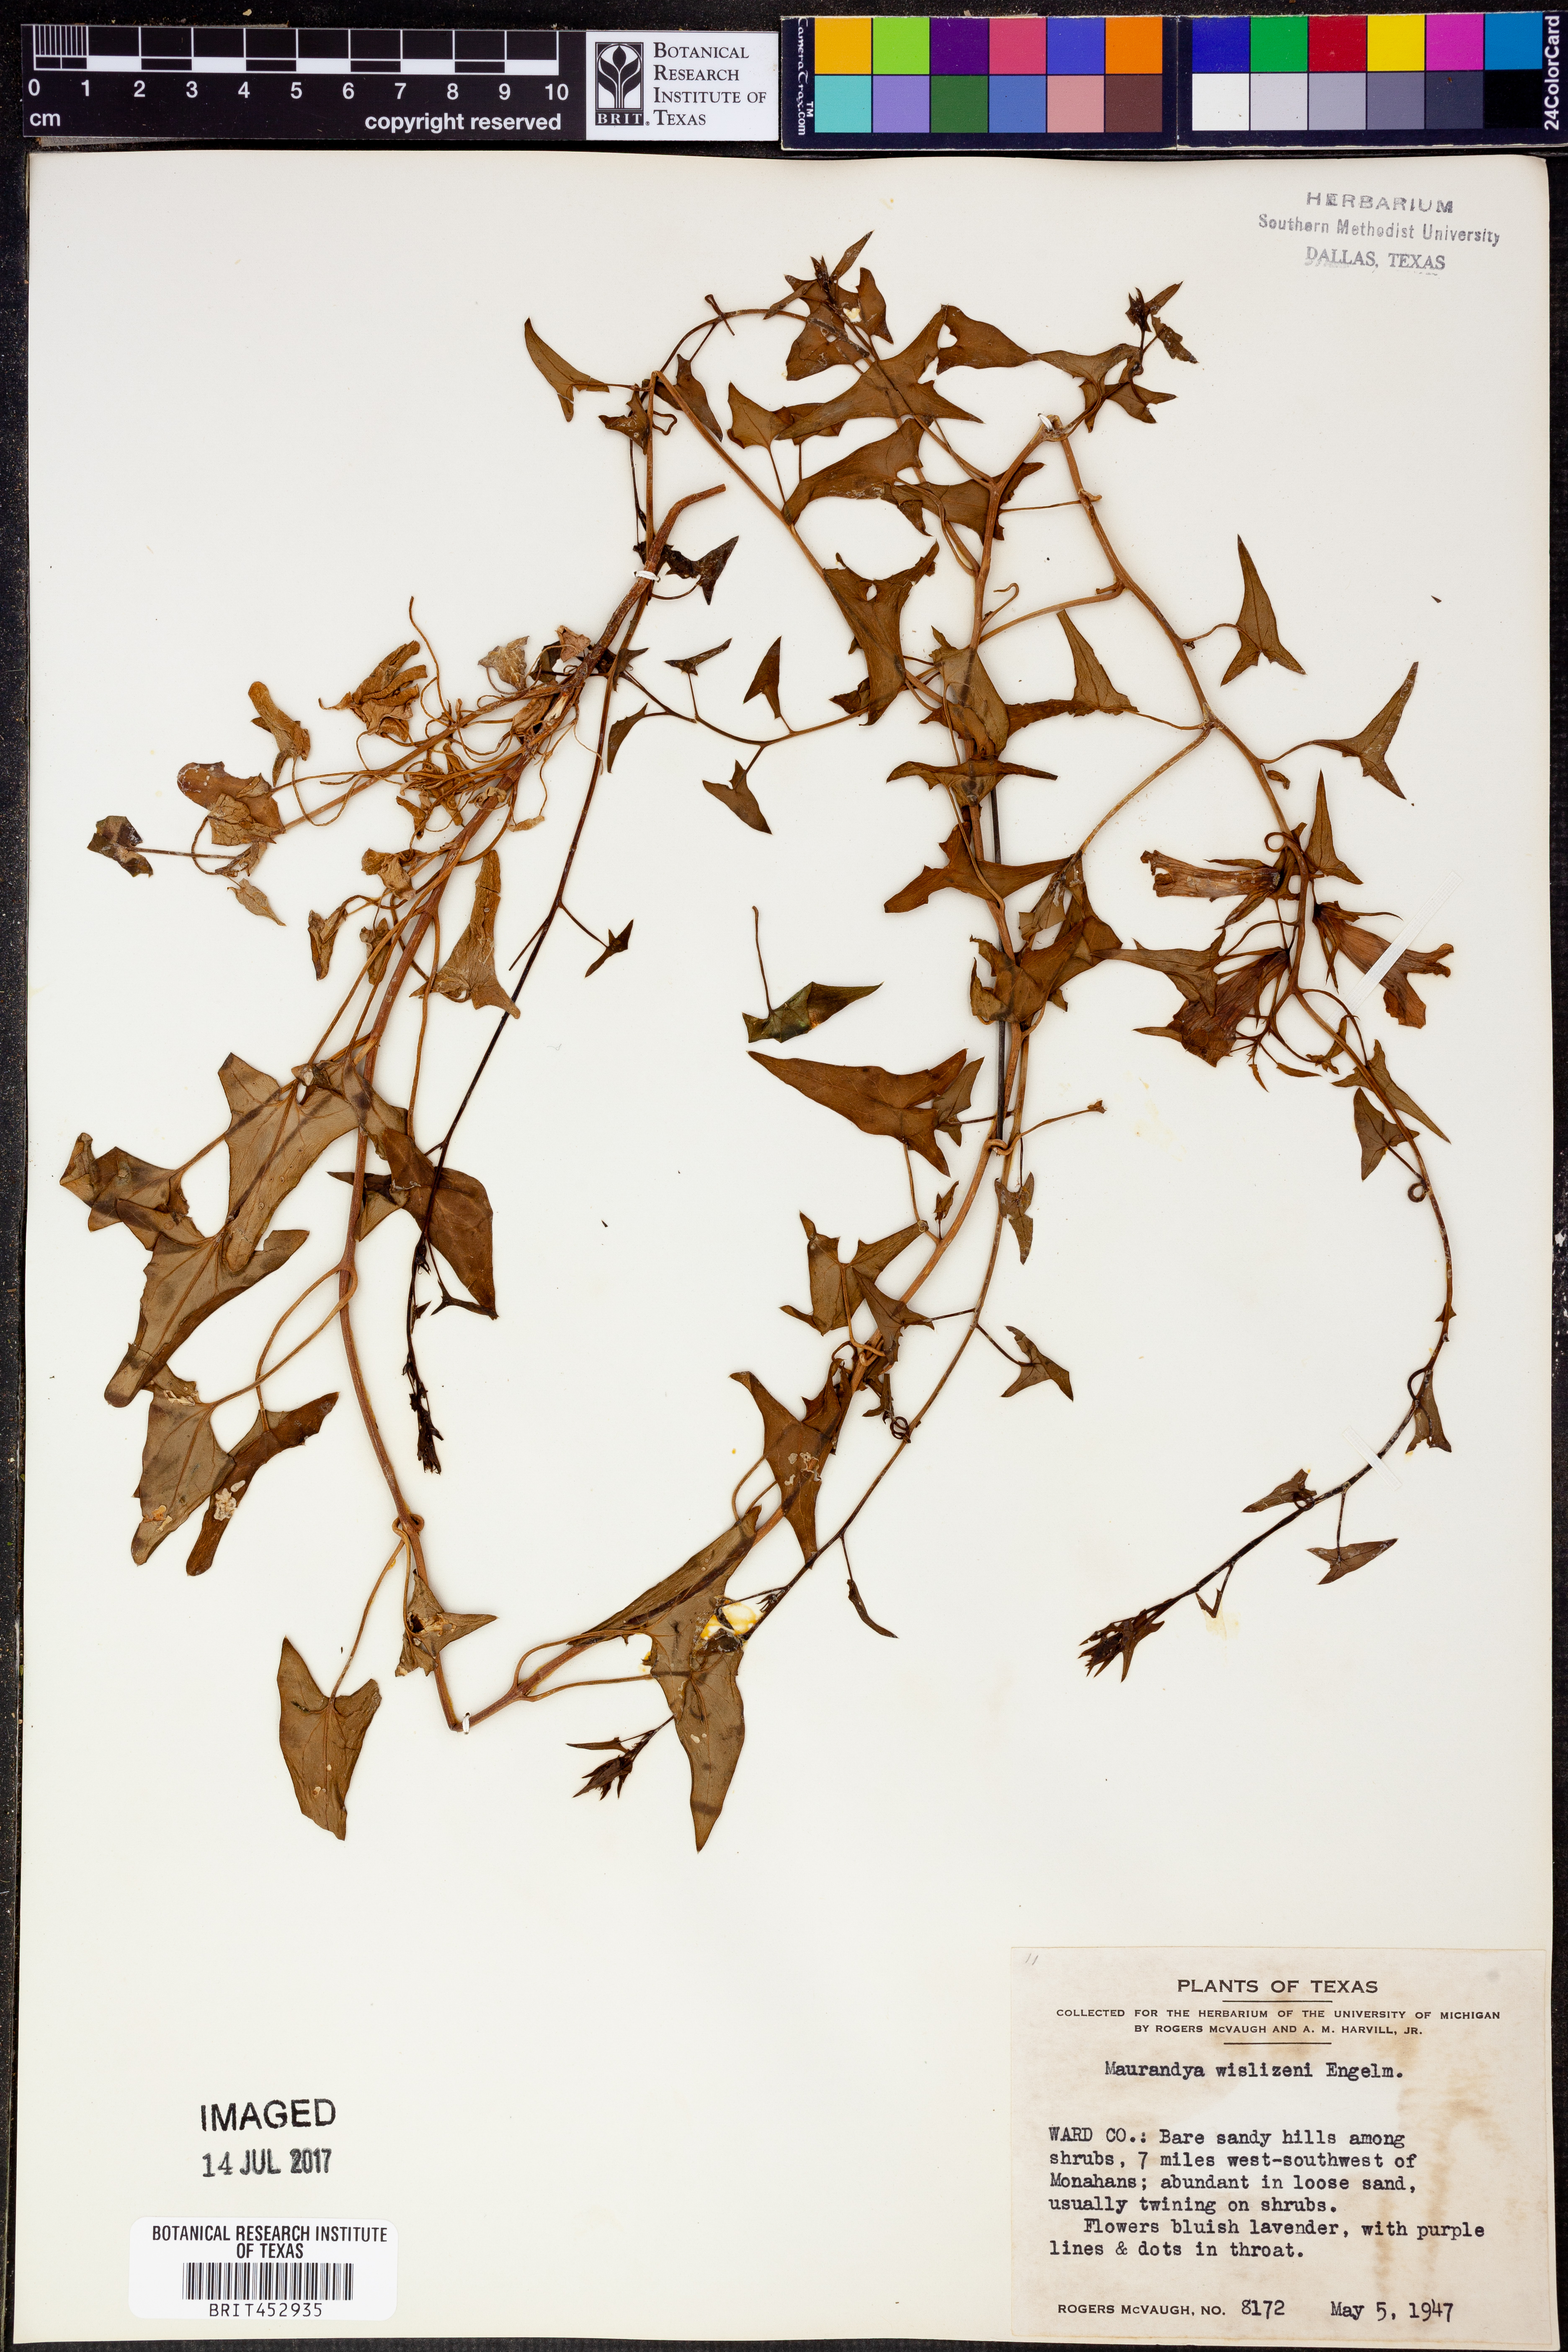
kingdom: Plantae
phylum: Tracheophyta
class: Magnoliopsida
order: Lamiales
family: Plantaginaceae
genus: Epixiphium
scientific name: Epixiphium wislizeni
